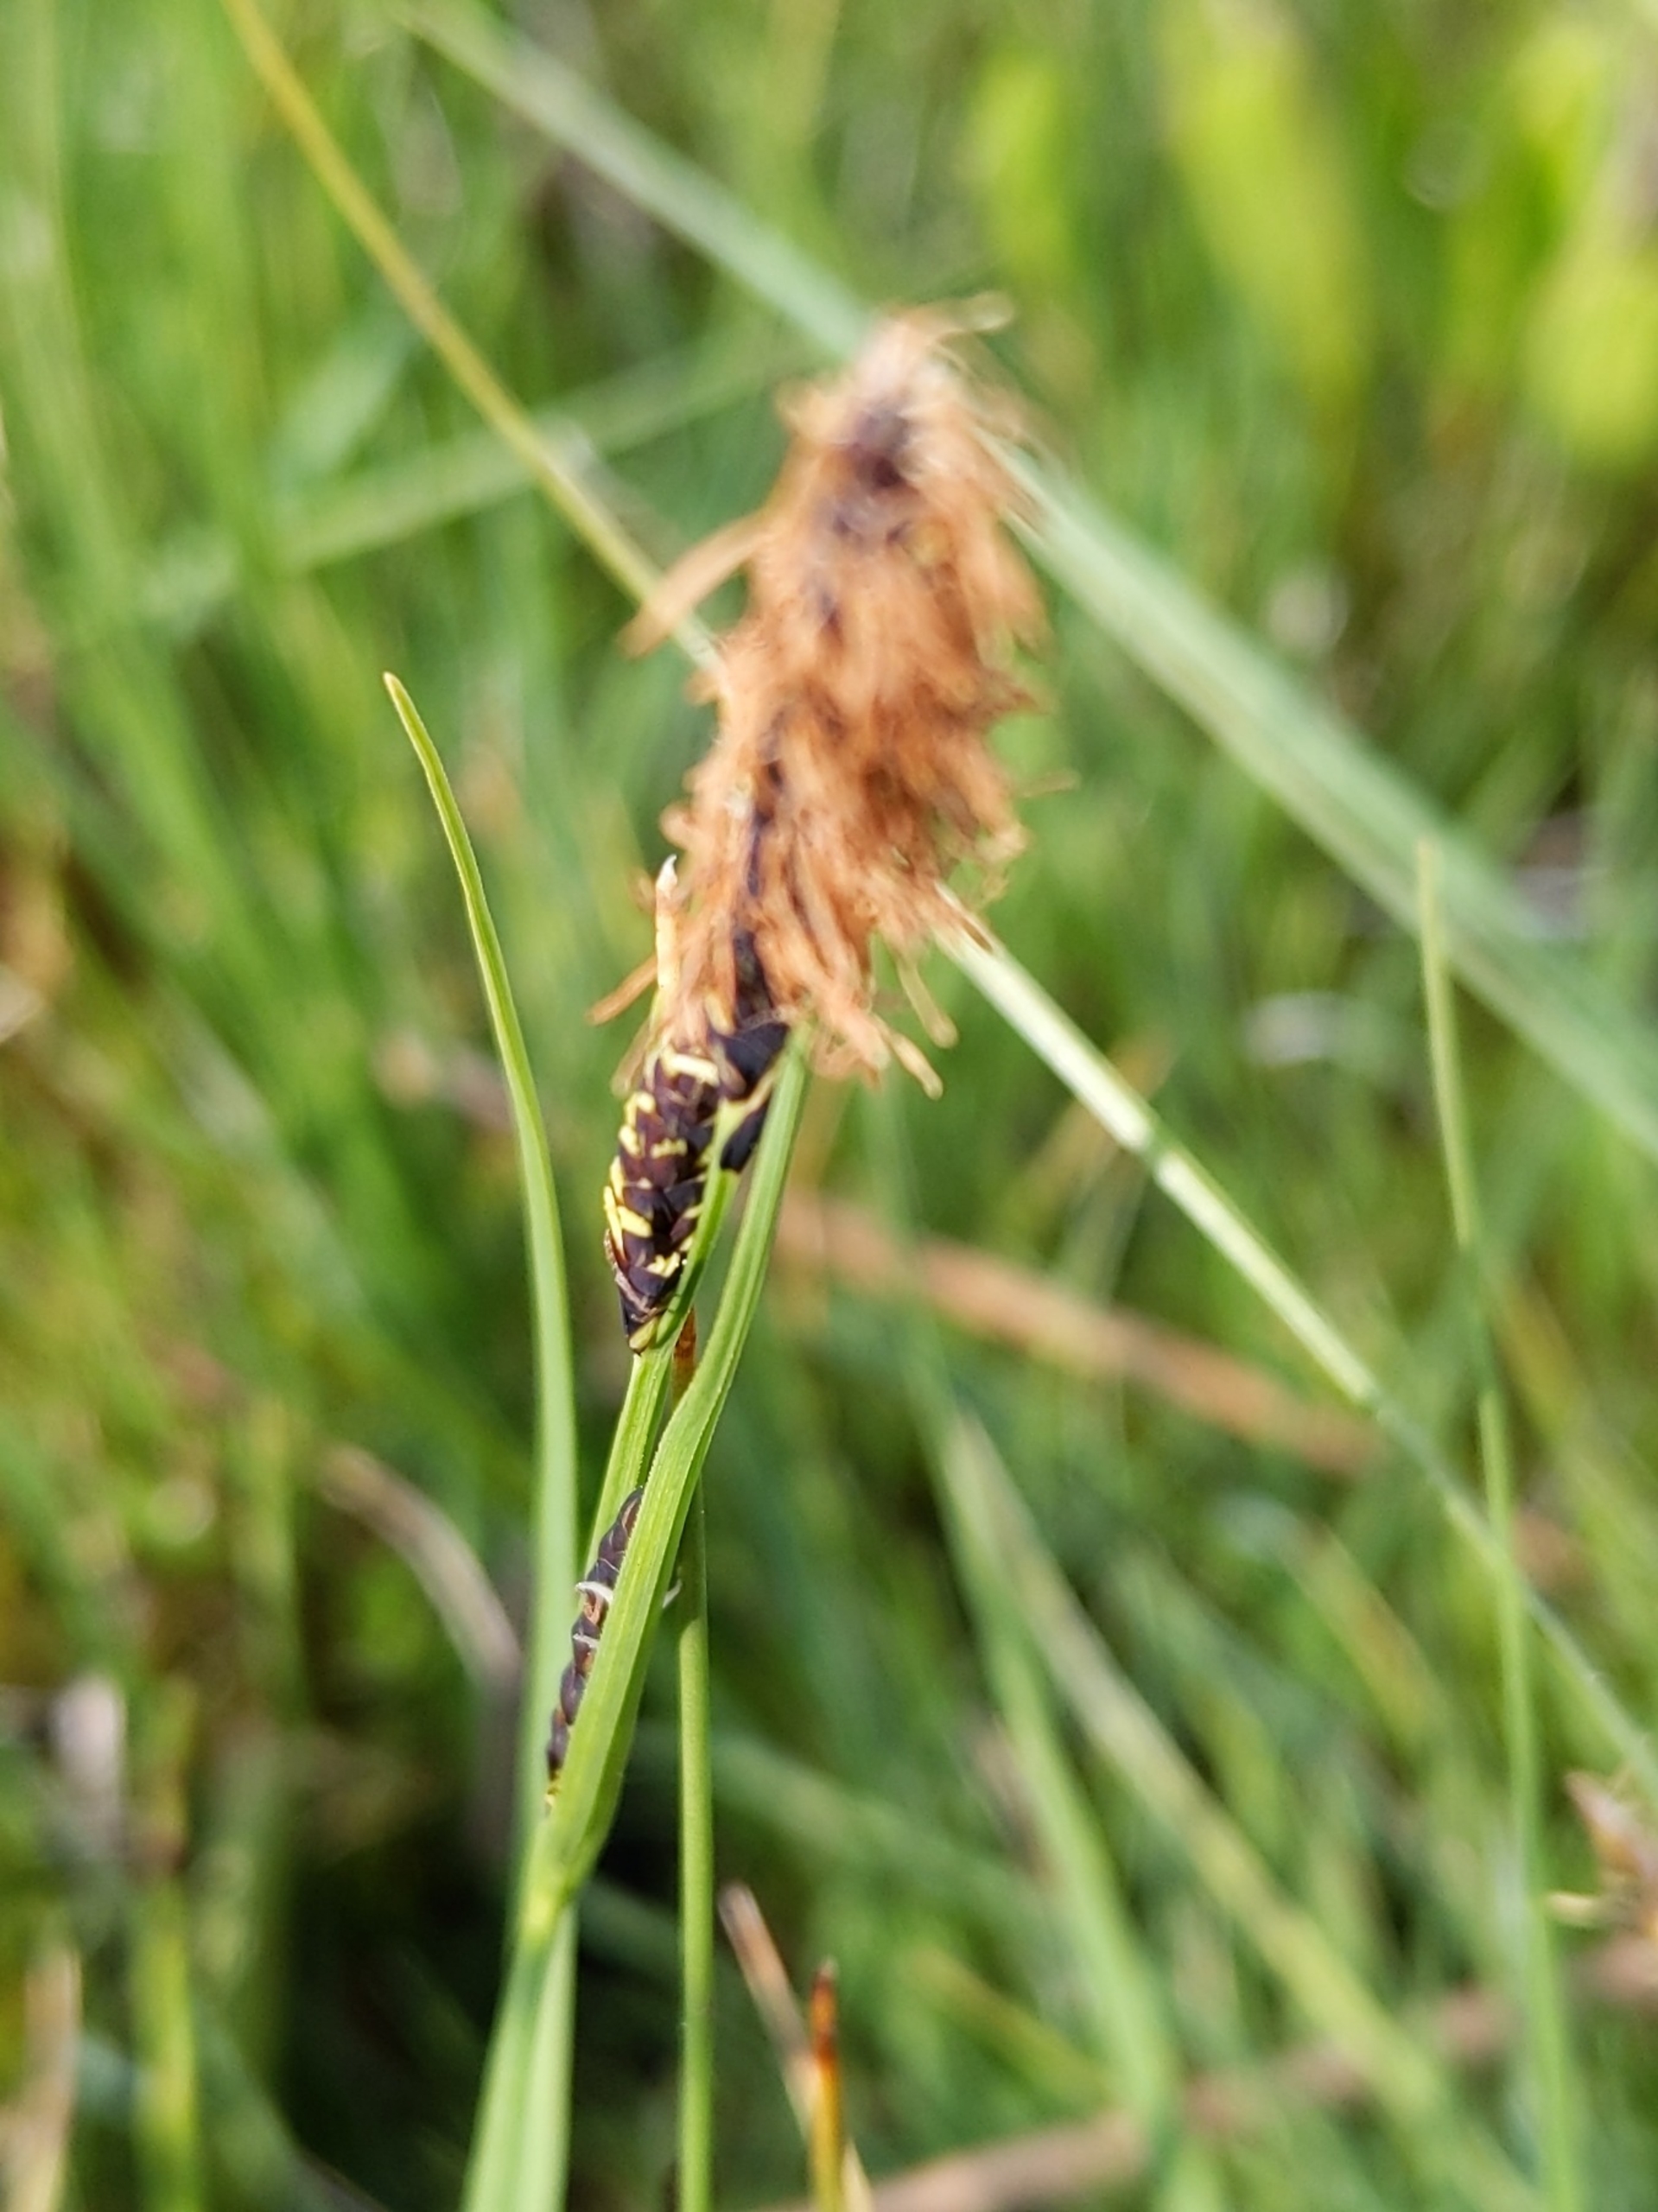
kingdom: Plantae
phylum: Tracheophyta
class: Liliopsida
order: Poales
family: Cyperaceae
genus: Carex
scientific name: Carex nigra
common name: Almindelig star
